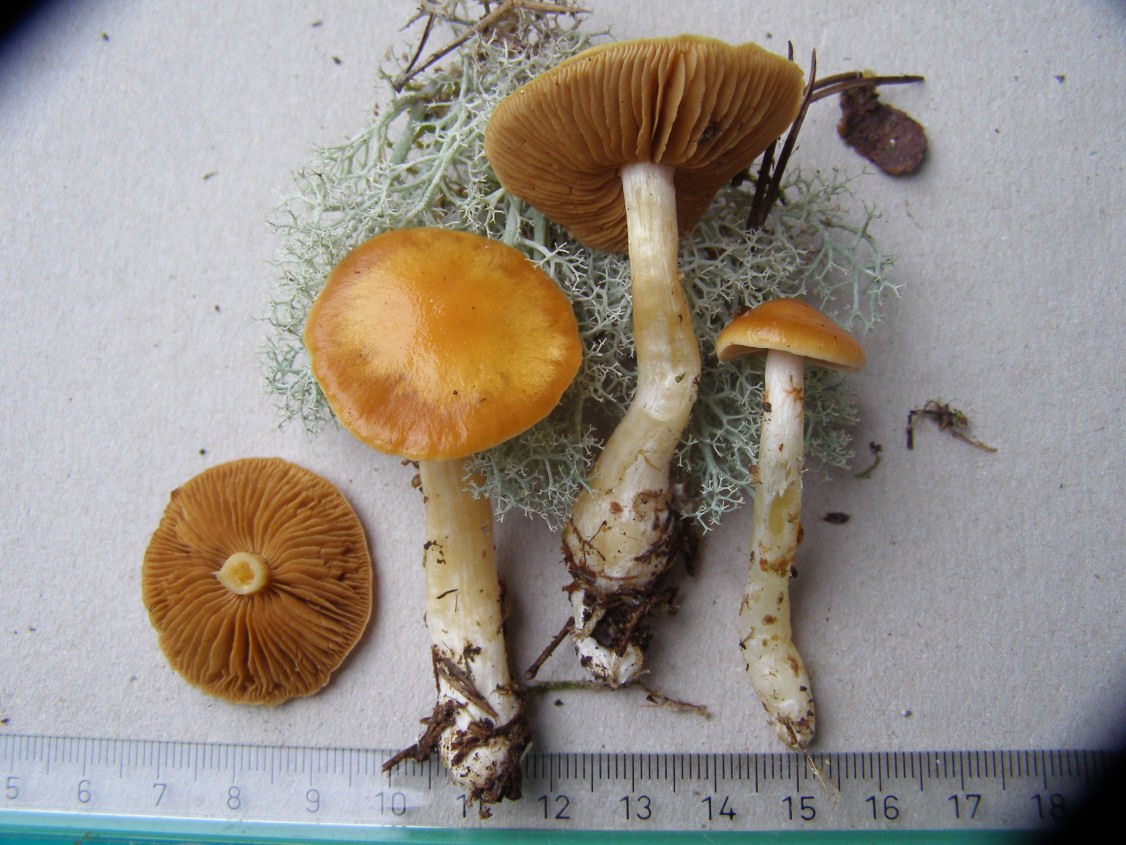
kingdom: Fungi
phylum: Basidiomycota
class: Agaricomycetes
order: Agaricales
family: Cortinariaceae
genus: Thaxterogaster
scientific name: Thaxterogaster pluvius
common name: hvidgul slørhat
